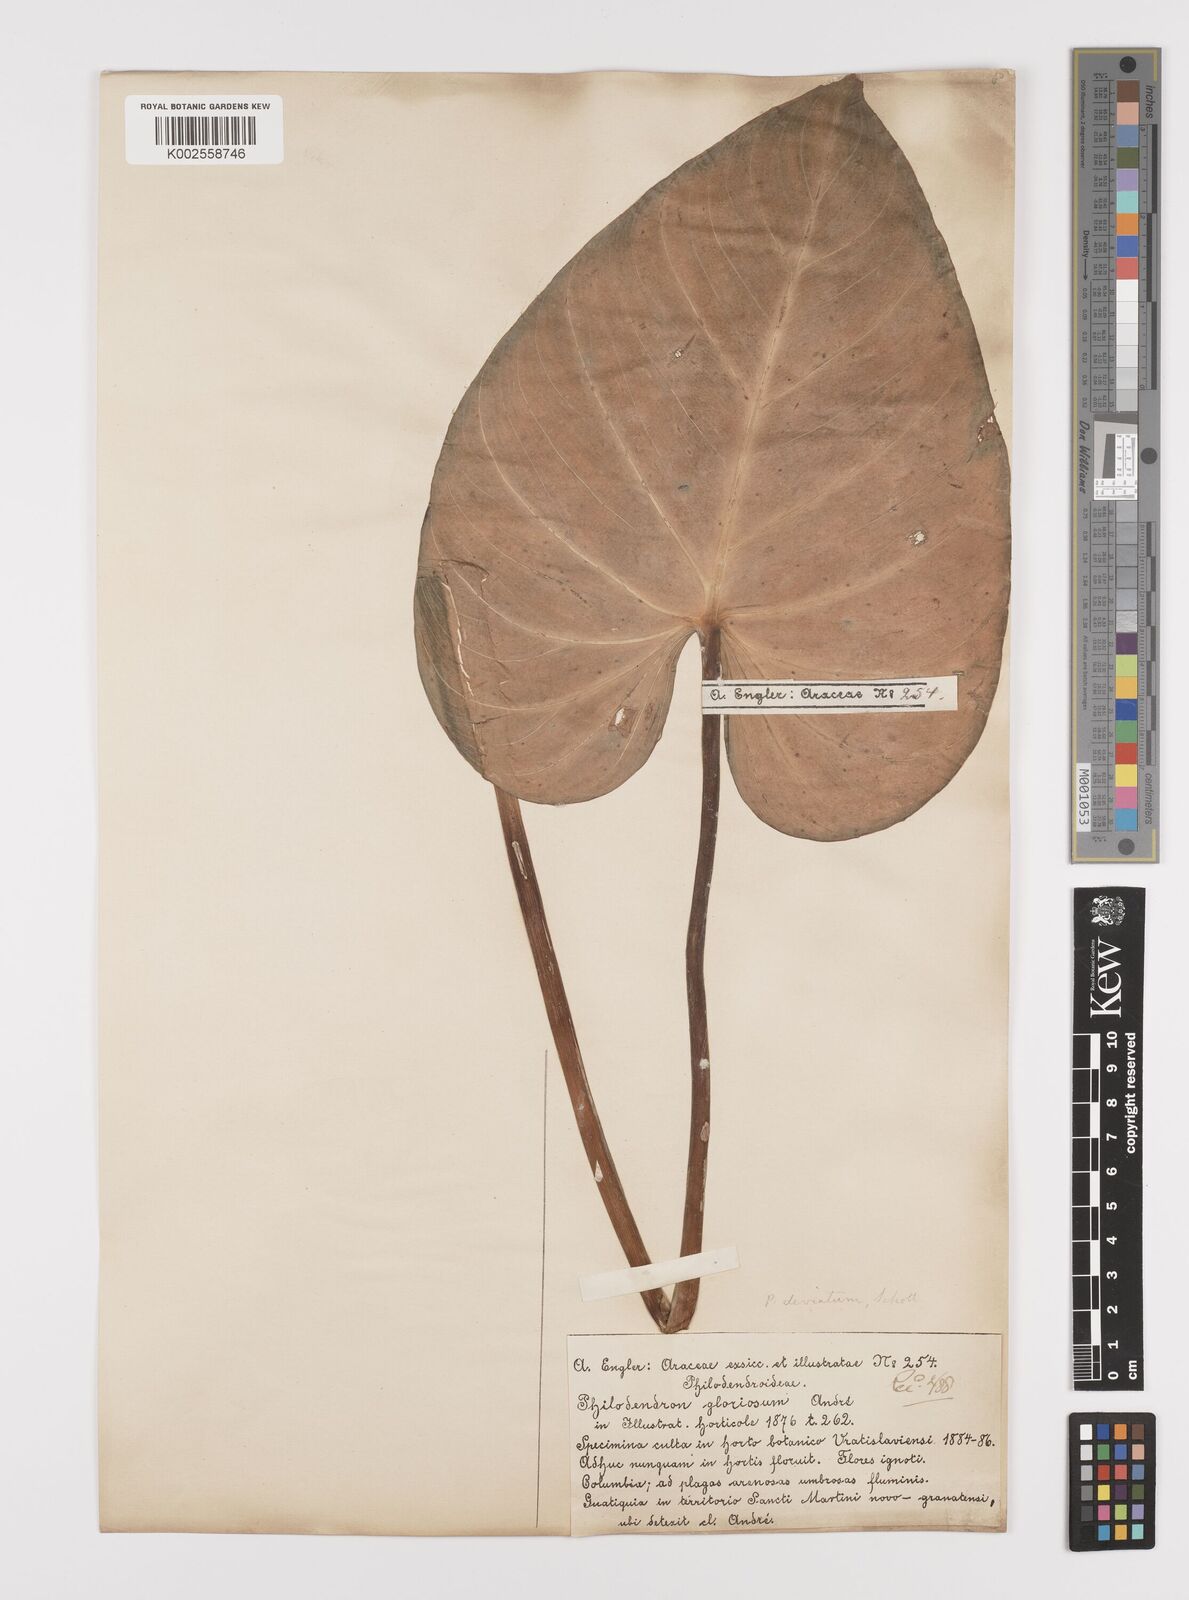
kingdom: Plantae
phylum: Tracheophyta
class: Liliopsida
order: Alismatales
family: Araceae
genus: Philodendron
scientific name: Philodendron jacquinii
